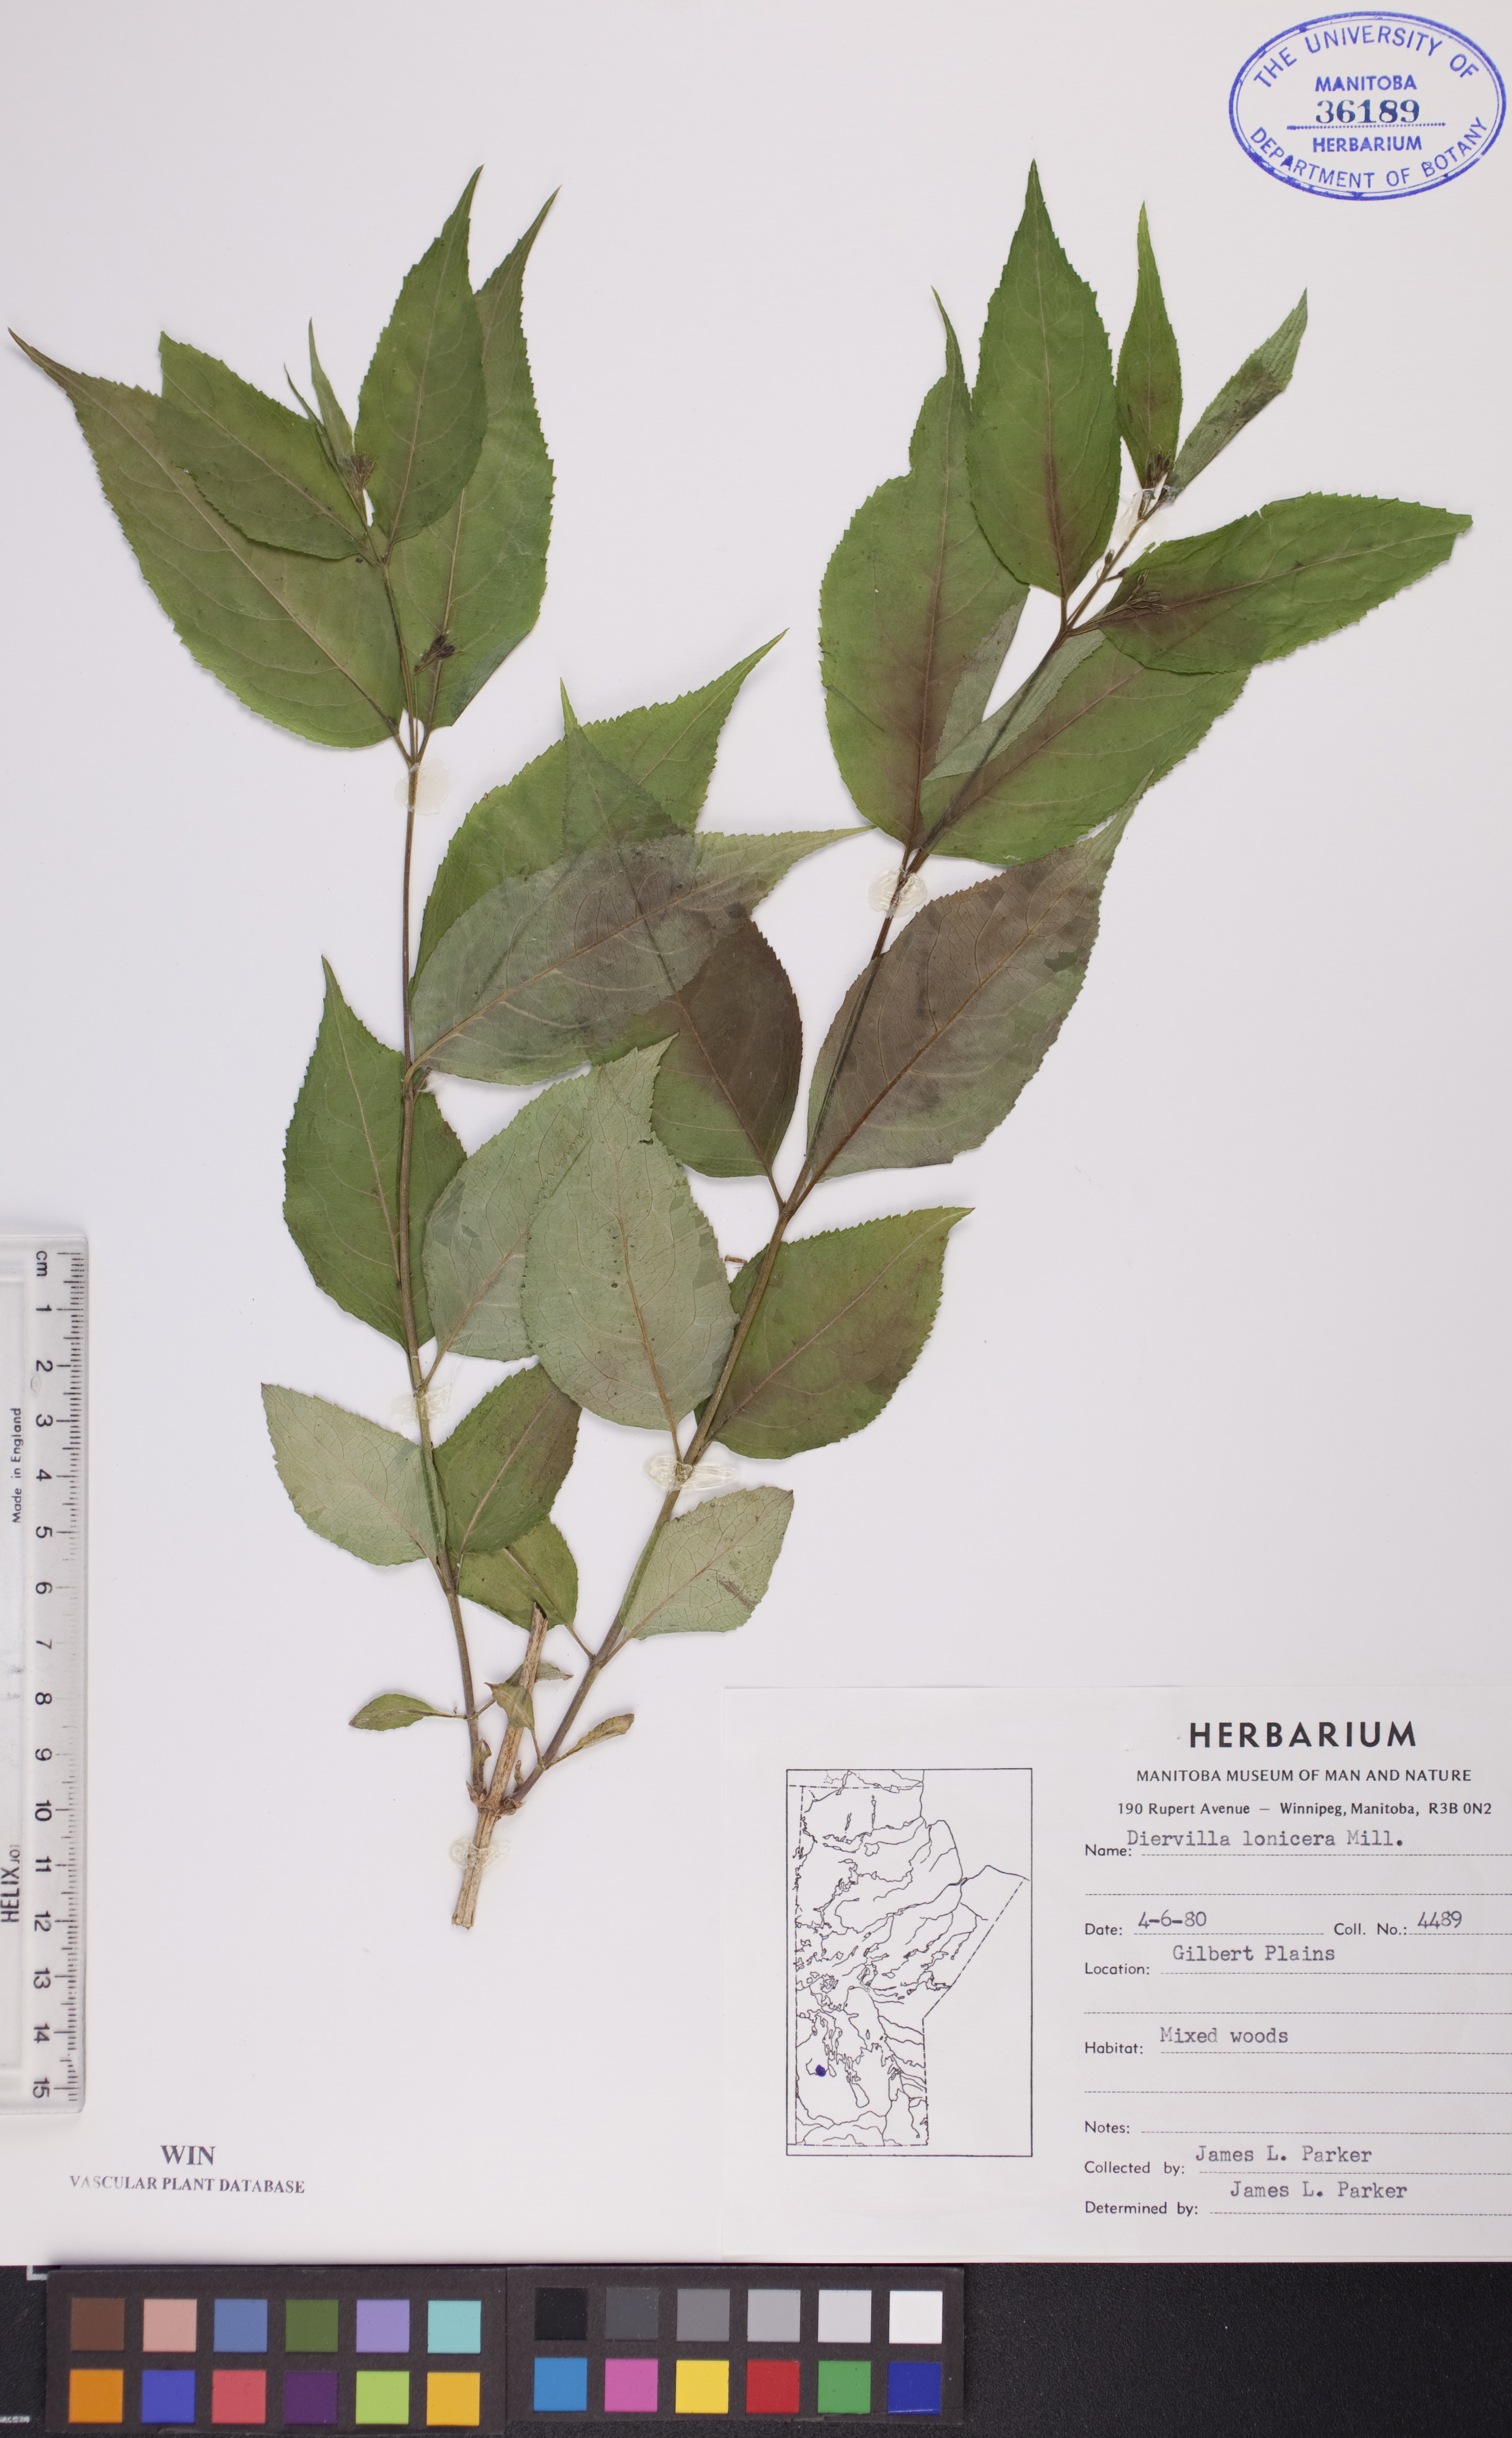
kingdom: Plantae
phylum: Tracheophyta
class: Magnoliopsida
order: Dipsacales
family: Caprifoliaceae
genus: Diervilla
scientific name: Diervilla lonicera
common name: Bush-honeysuckle
